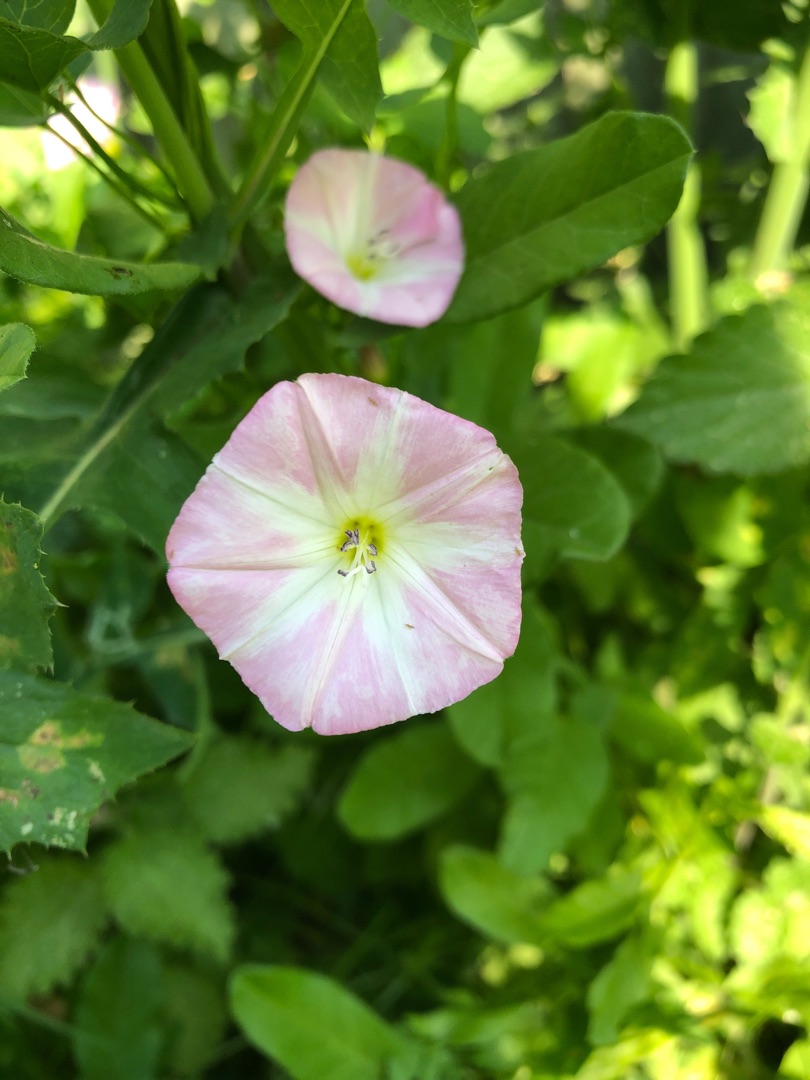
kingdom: Plantae
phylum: Tracheophyta
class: Magnoliopsida
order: Solanales
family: Convolvulaceae
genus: Convolvulus
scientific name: Convolvulus arvensis
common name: Ager-snerle
